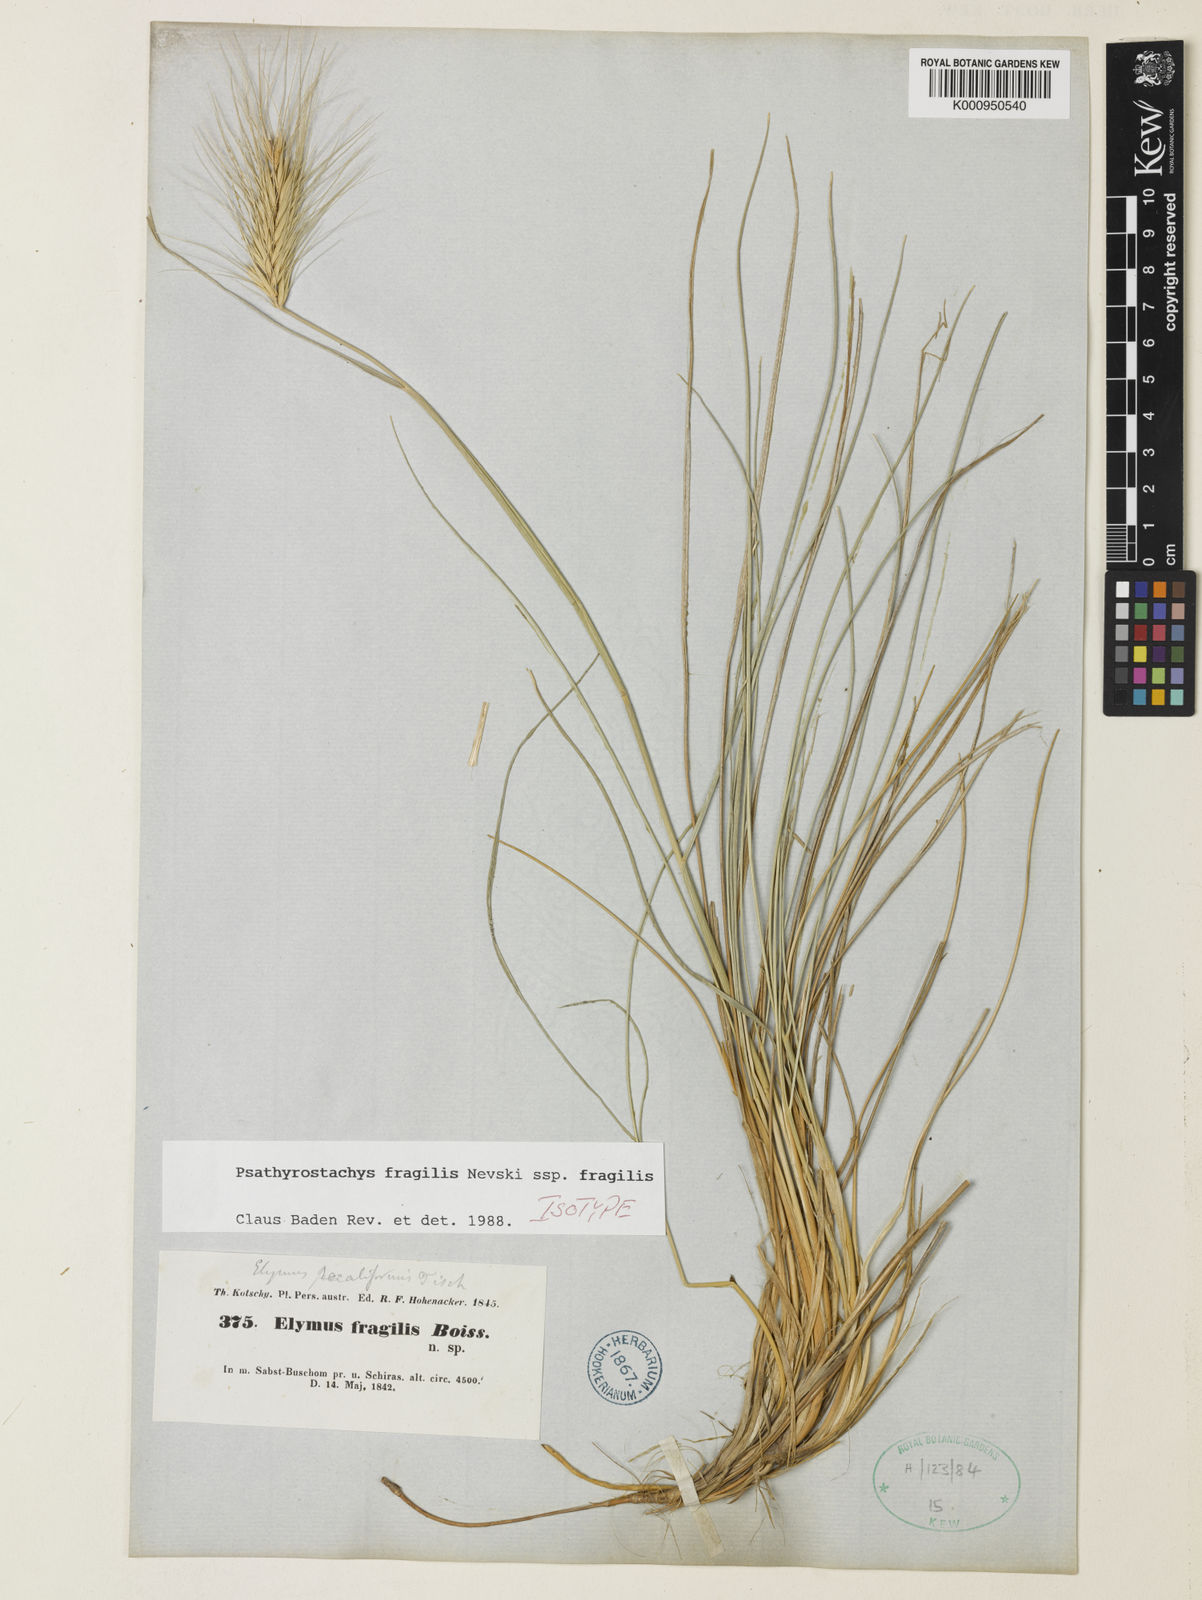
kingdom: Plantae
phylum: Tracheophyta
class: Liliopsida
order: Poales
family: Poaceae
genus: Psathyrostachys
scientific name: Psathyrostachys fragilis
